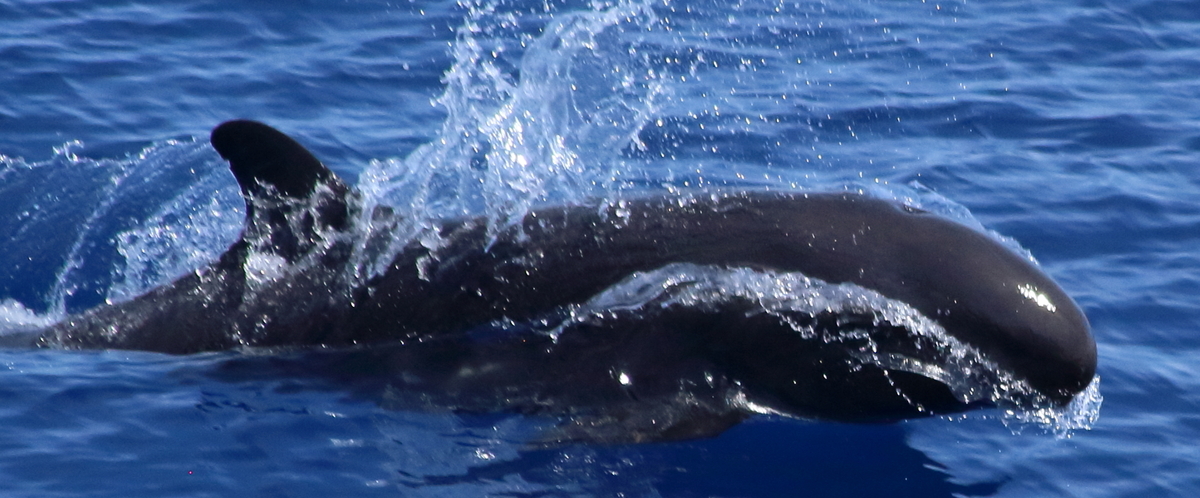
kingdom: Animalia
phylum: Chordata
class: Mammalia
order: Cetacea
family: Delphinidae
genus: Pseudorca
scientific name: Pseudorca crassidens
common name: False Killer Whale
